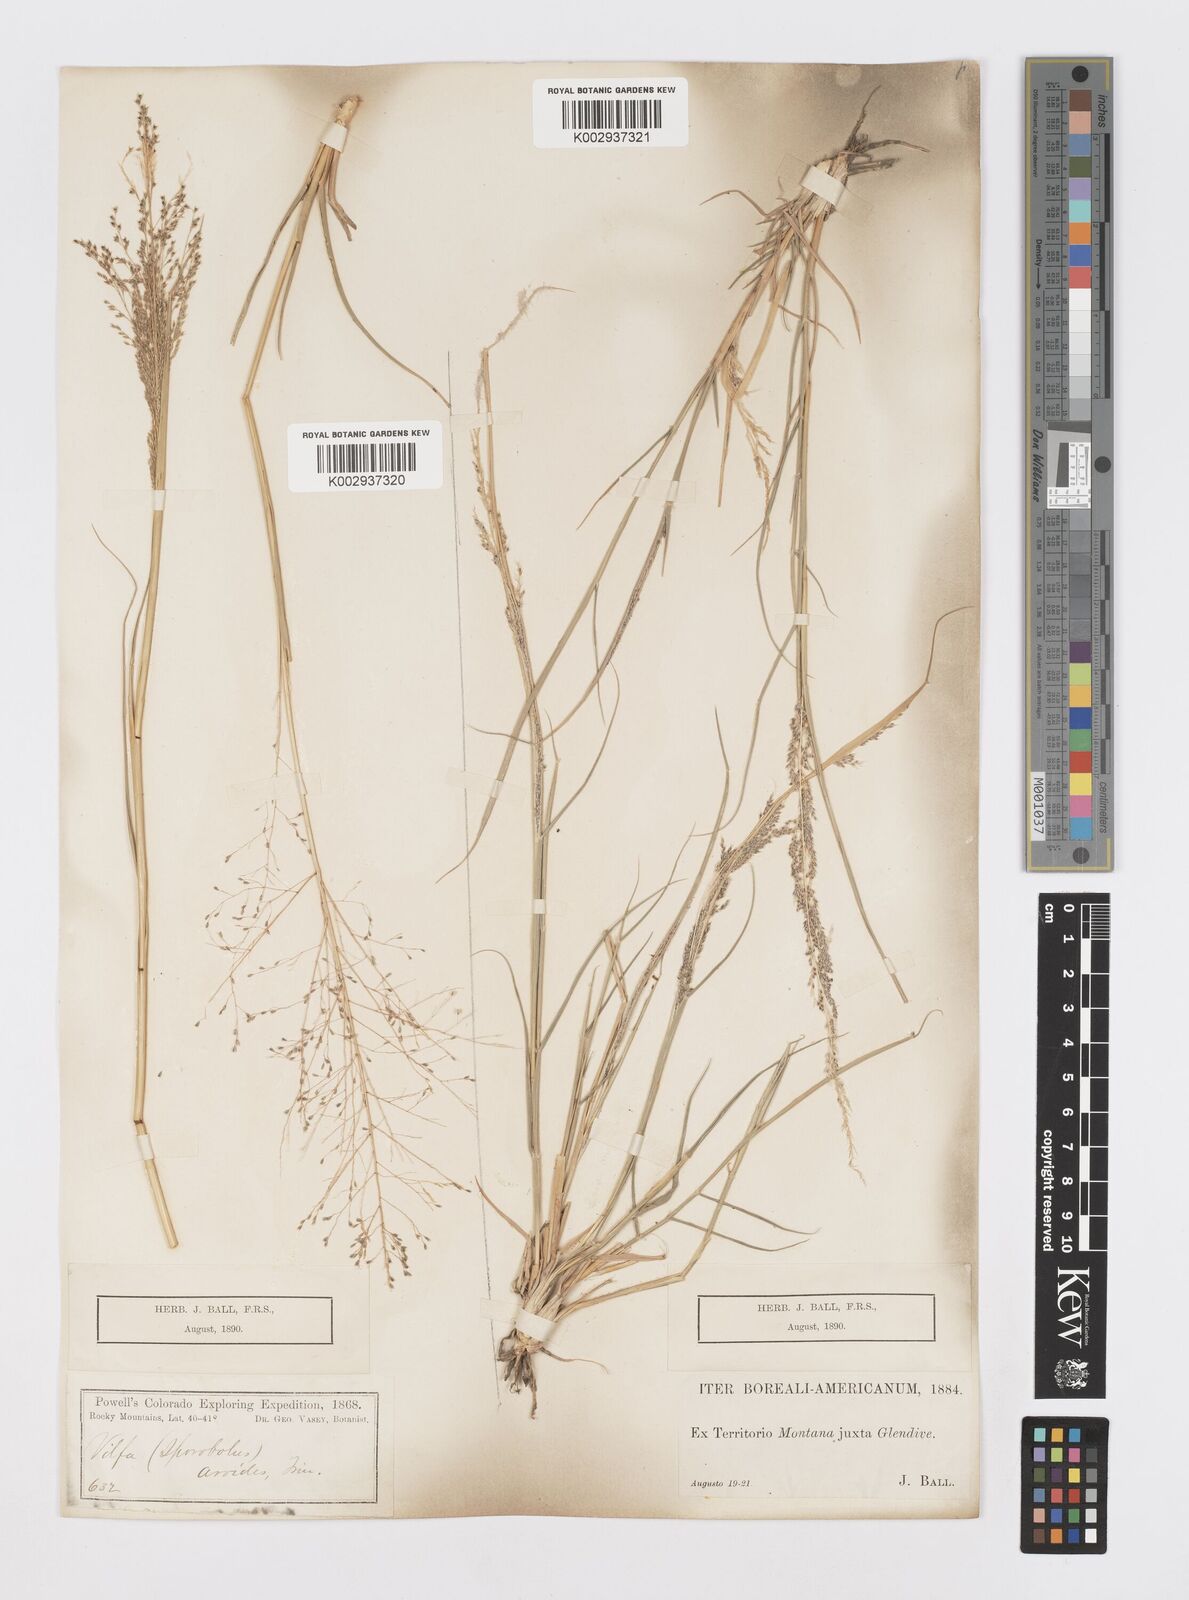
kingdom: Plantae
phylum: Tracheophyta
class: Liliopsida
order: Poales
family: Poaceae
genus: Sporobolus
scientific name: Sporobolus airoides
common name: Alkali sacaton
